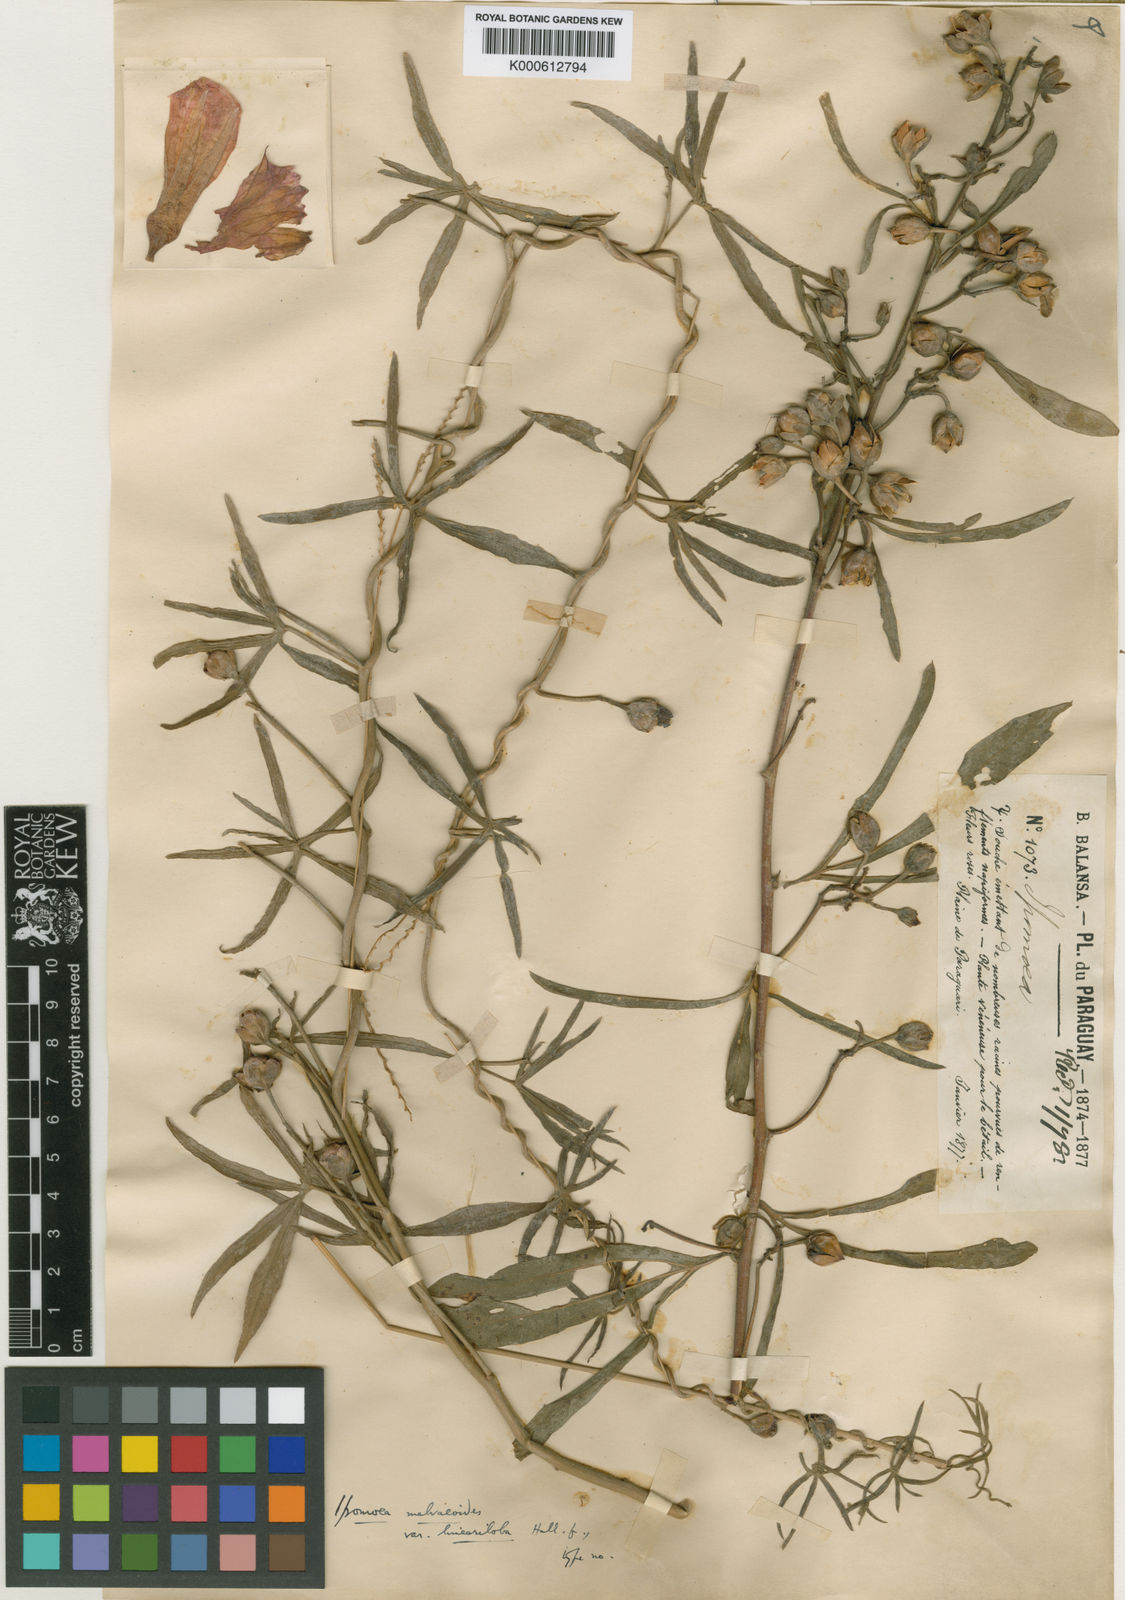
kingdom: Plantae
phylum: Tracheophyta
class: Magnoliopsida
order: Solanales
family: Convolvulaceae
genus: Ipomoea
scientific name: Ipomoea malvaeoides
